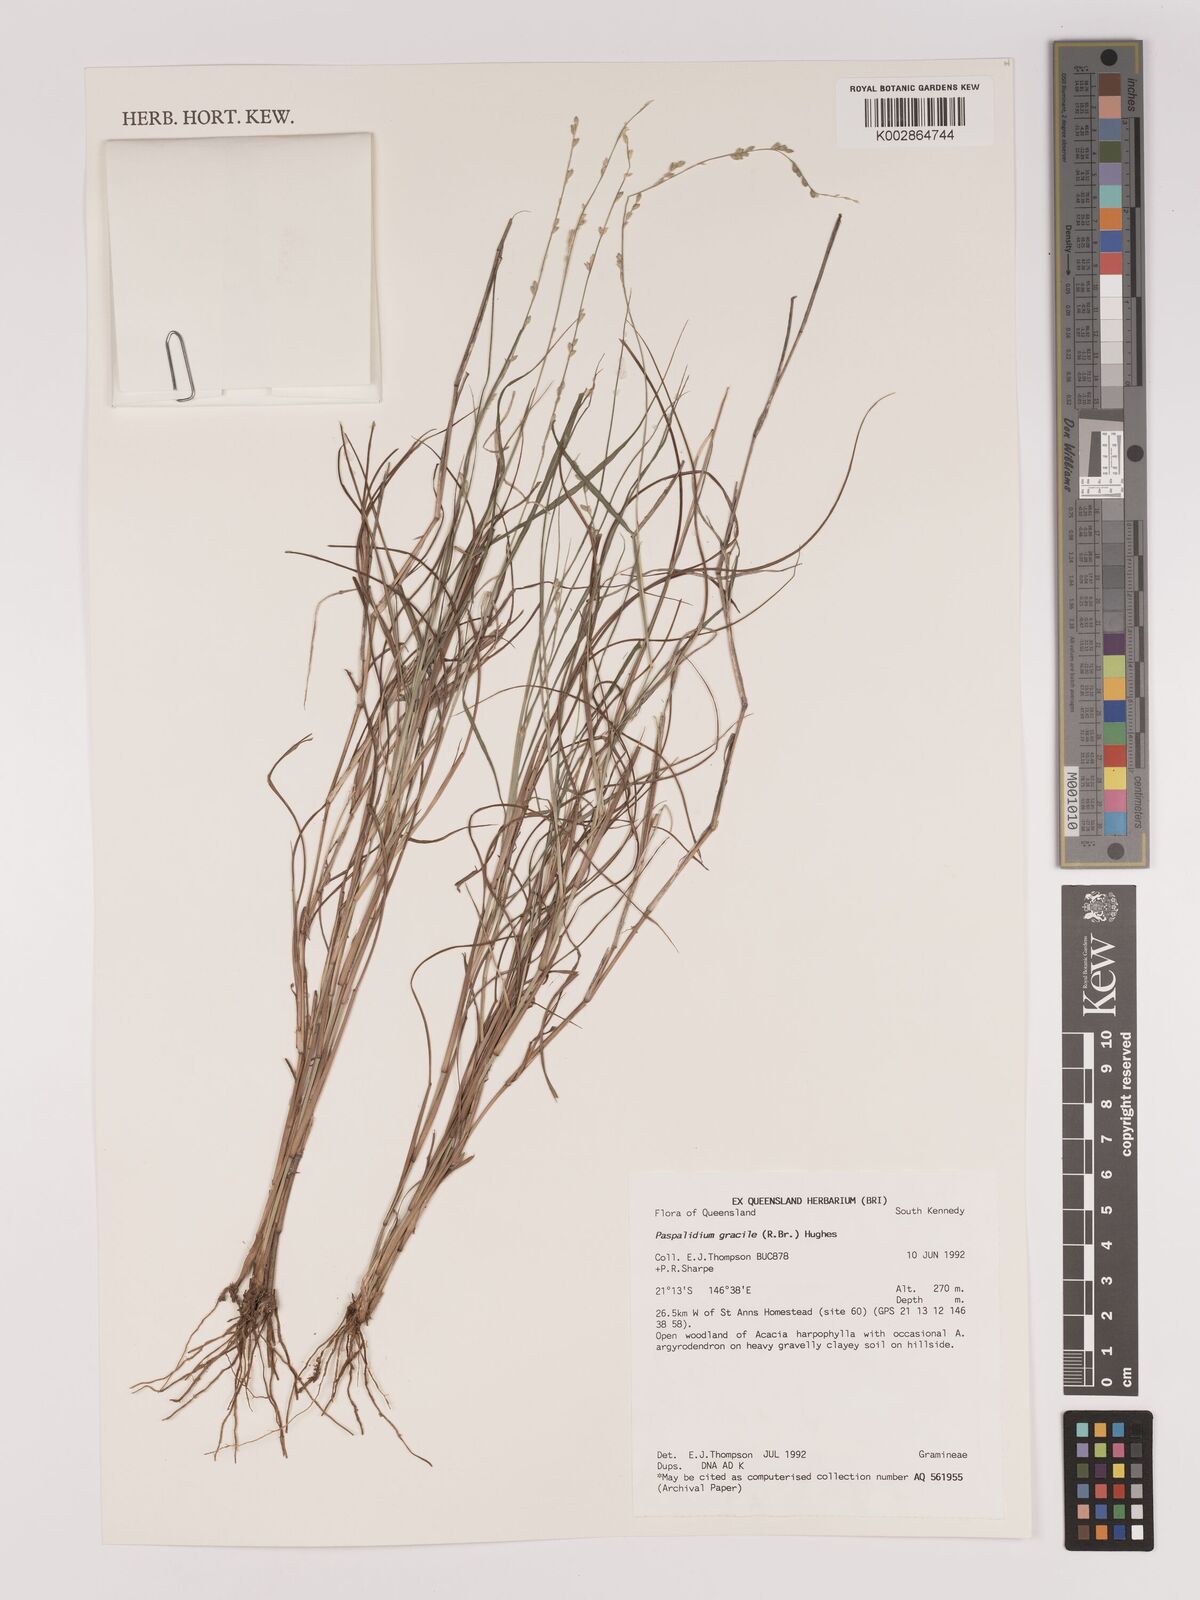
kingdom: Plantae
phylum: Tracheophyta
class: Liliopsida
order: Poales
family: Poaceae
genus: Setaria
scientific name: Setaria brownii
